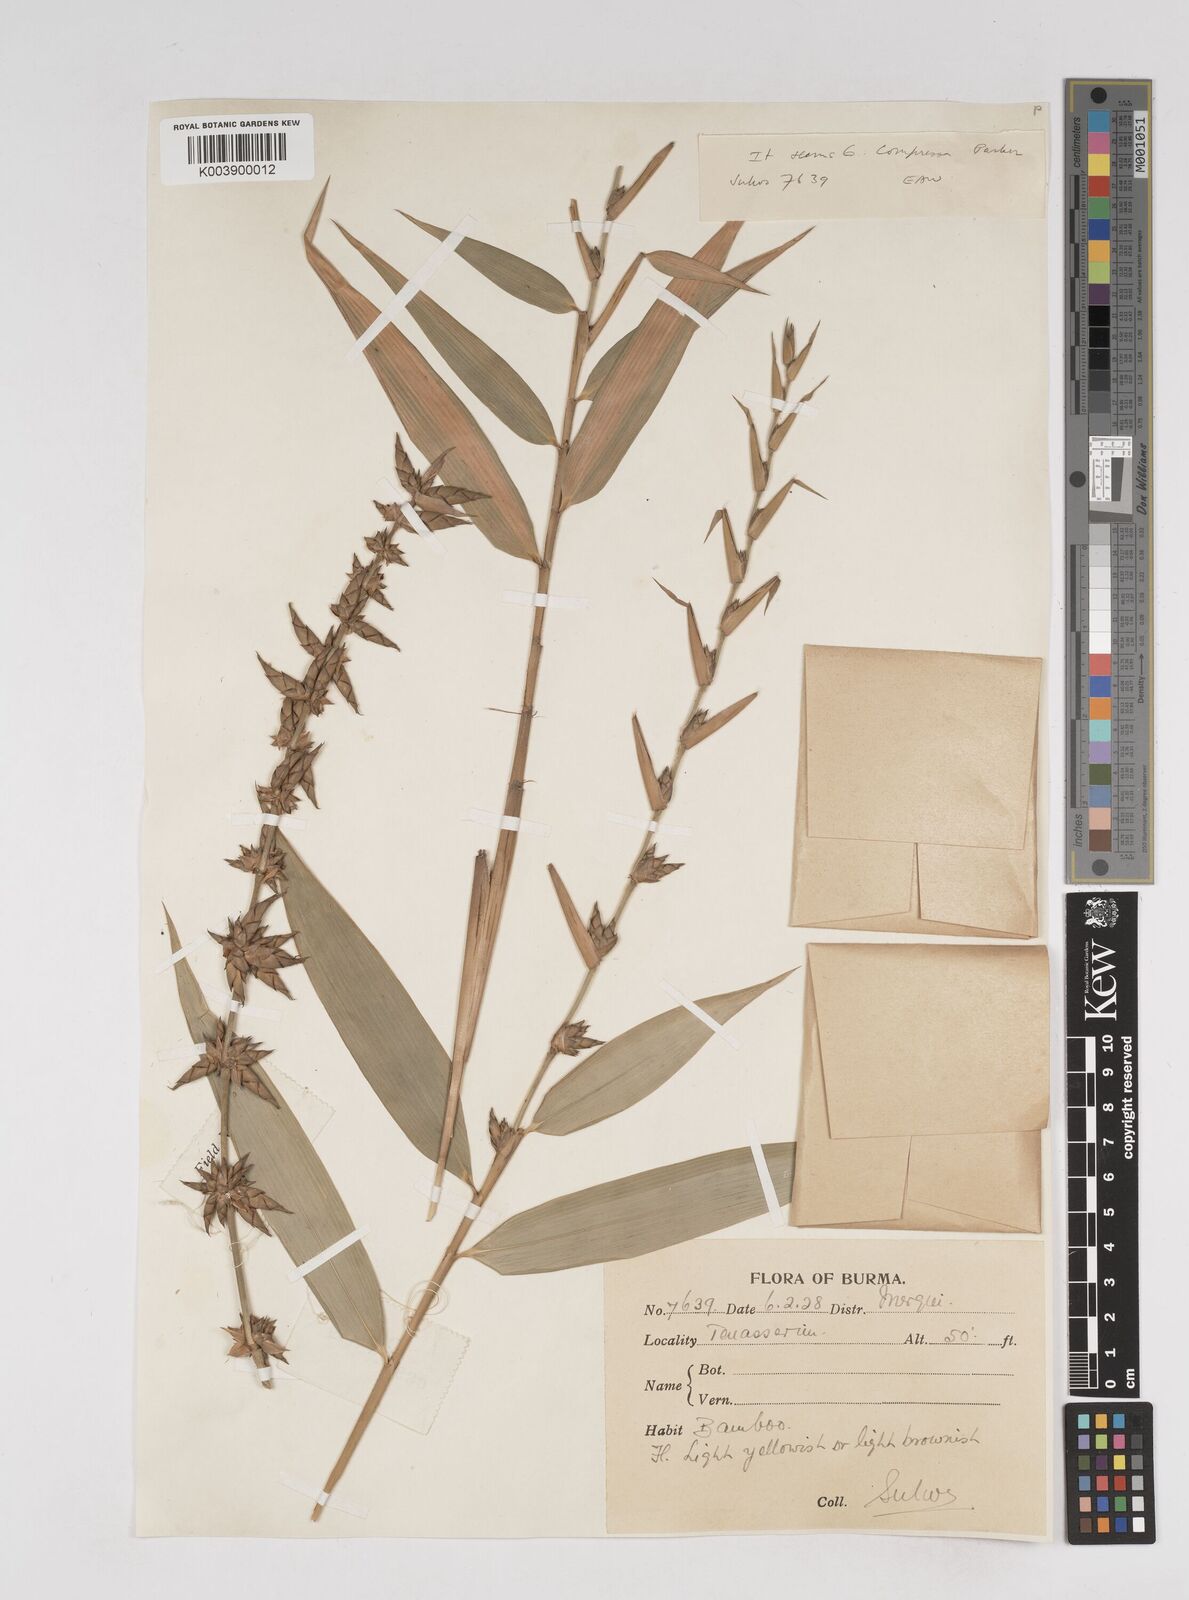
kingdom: Plantae
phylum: Tracheophyta
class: Liliopsida
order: Poales
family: Poaceae
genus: Gigantochloa
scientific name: Gigantochloa
